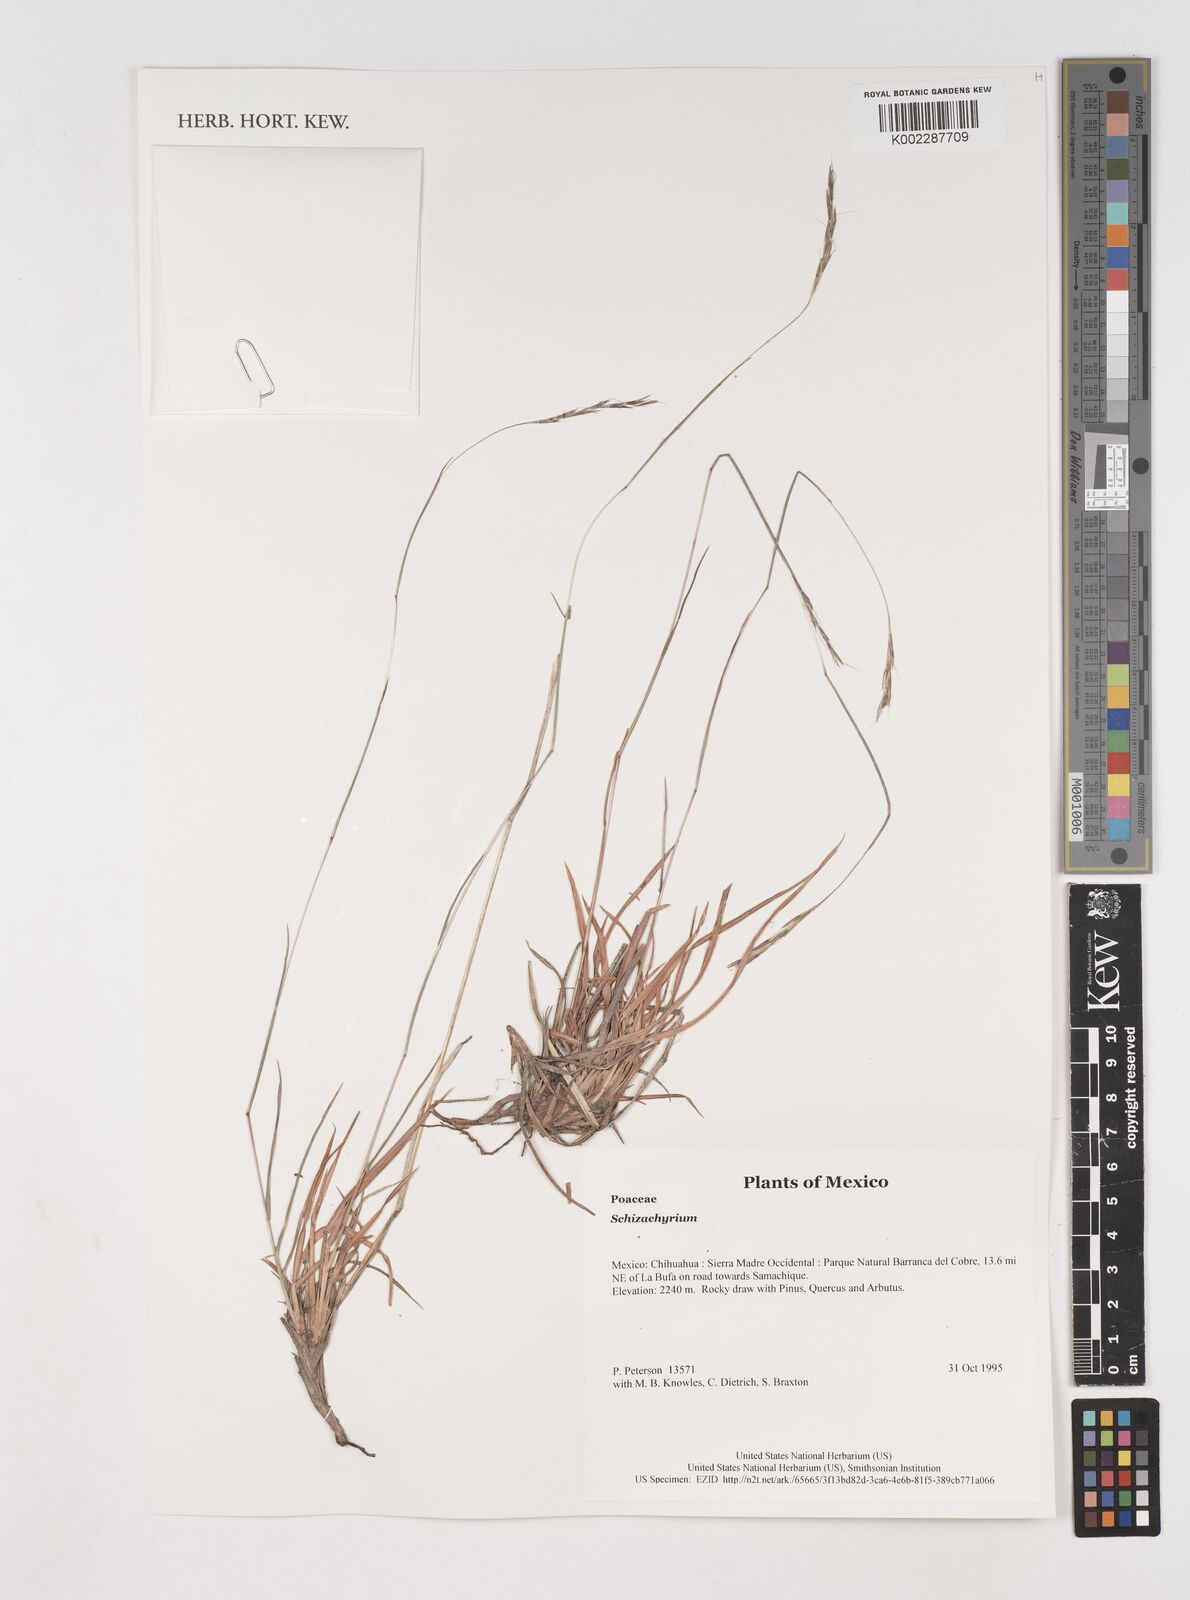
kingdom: Plantae
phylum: Tracheophyta
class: Liliopsida
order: Poales
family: Poaceae
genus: Schizachyrium
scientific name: Schizachyrium
